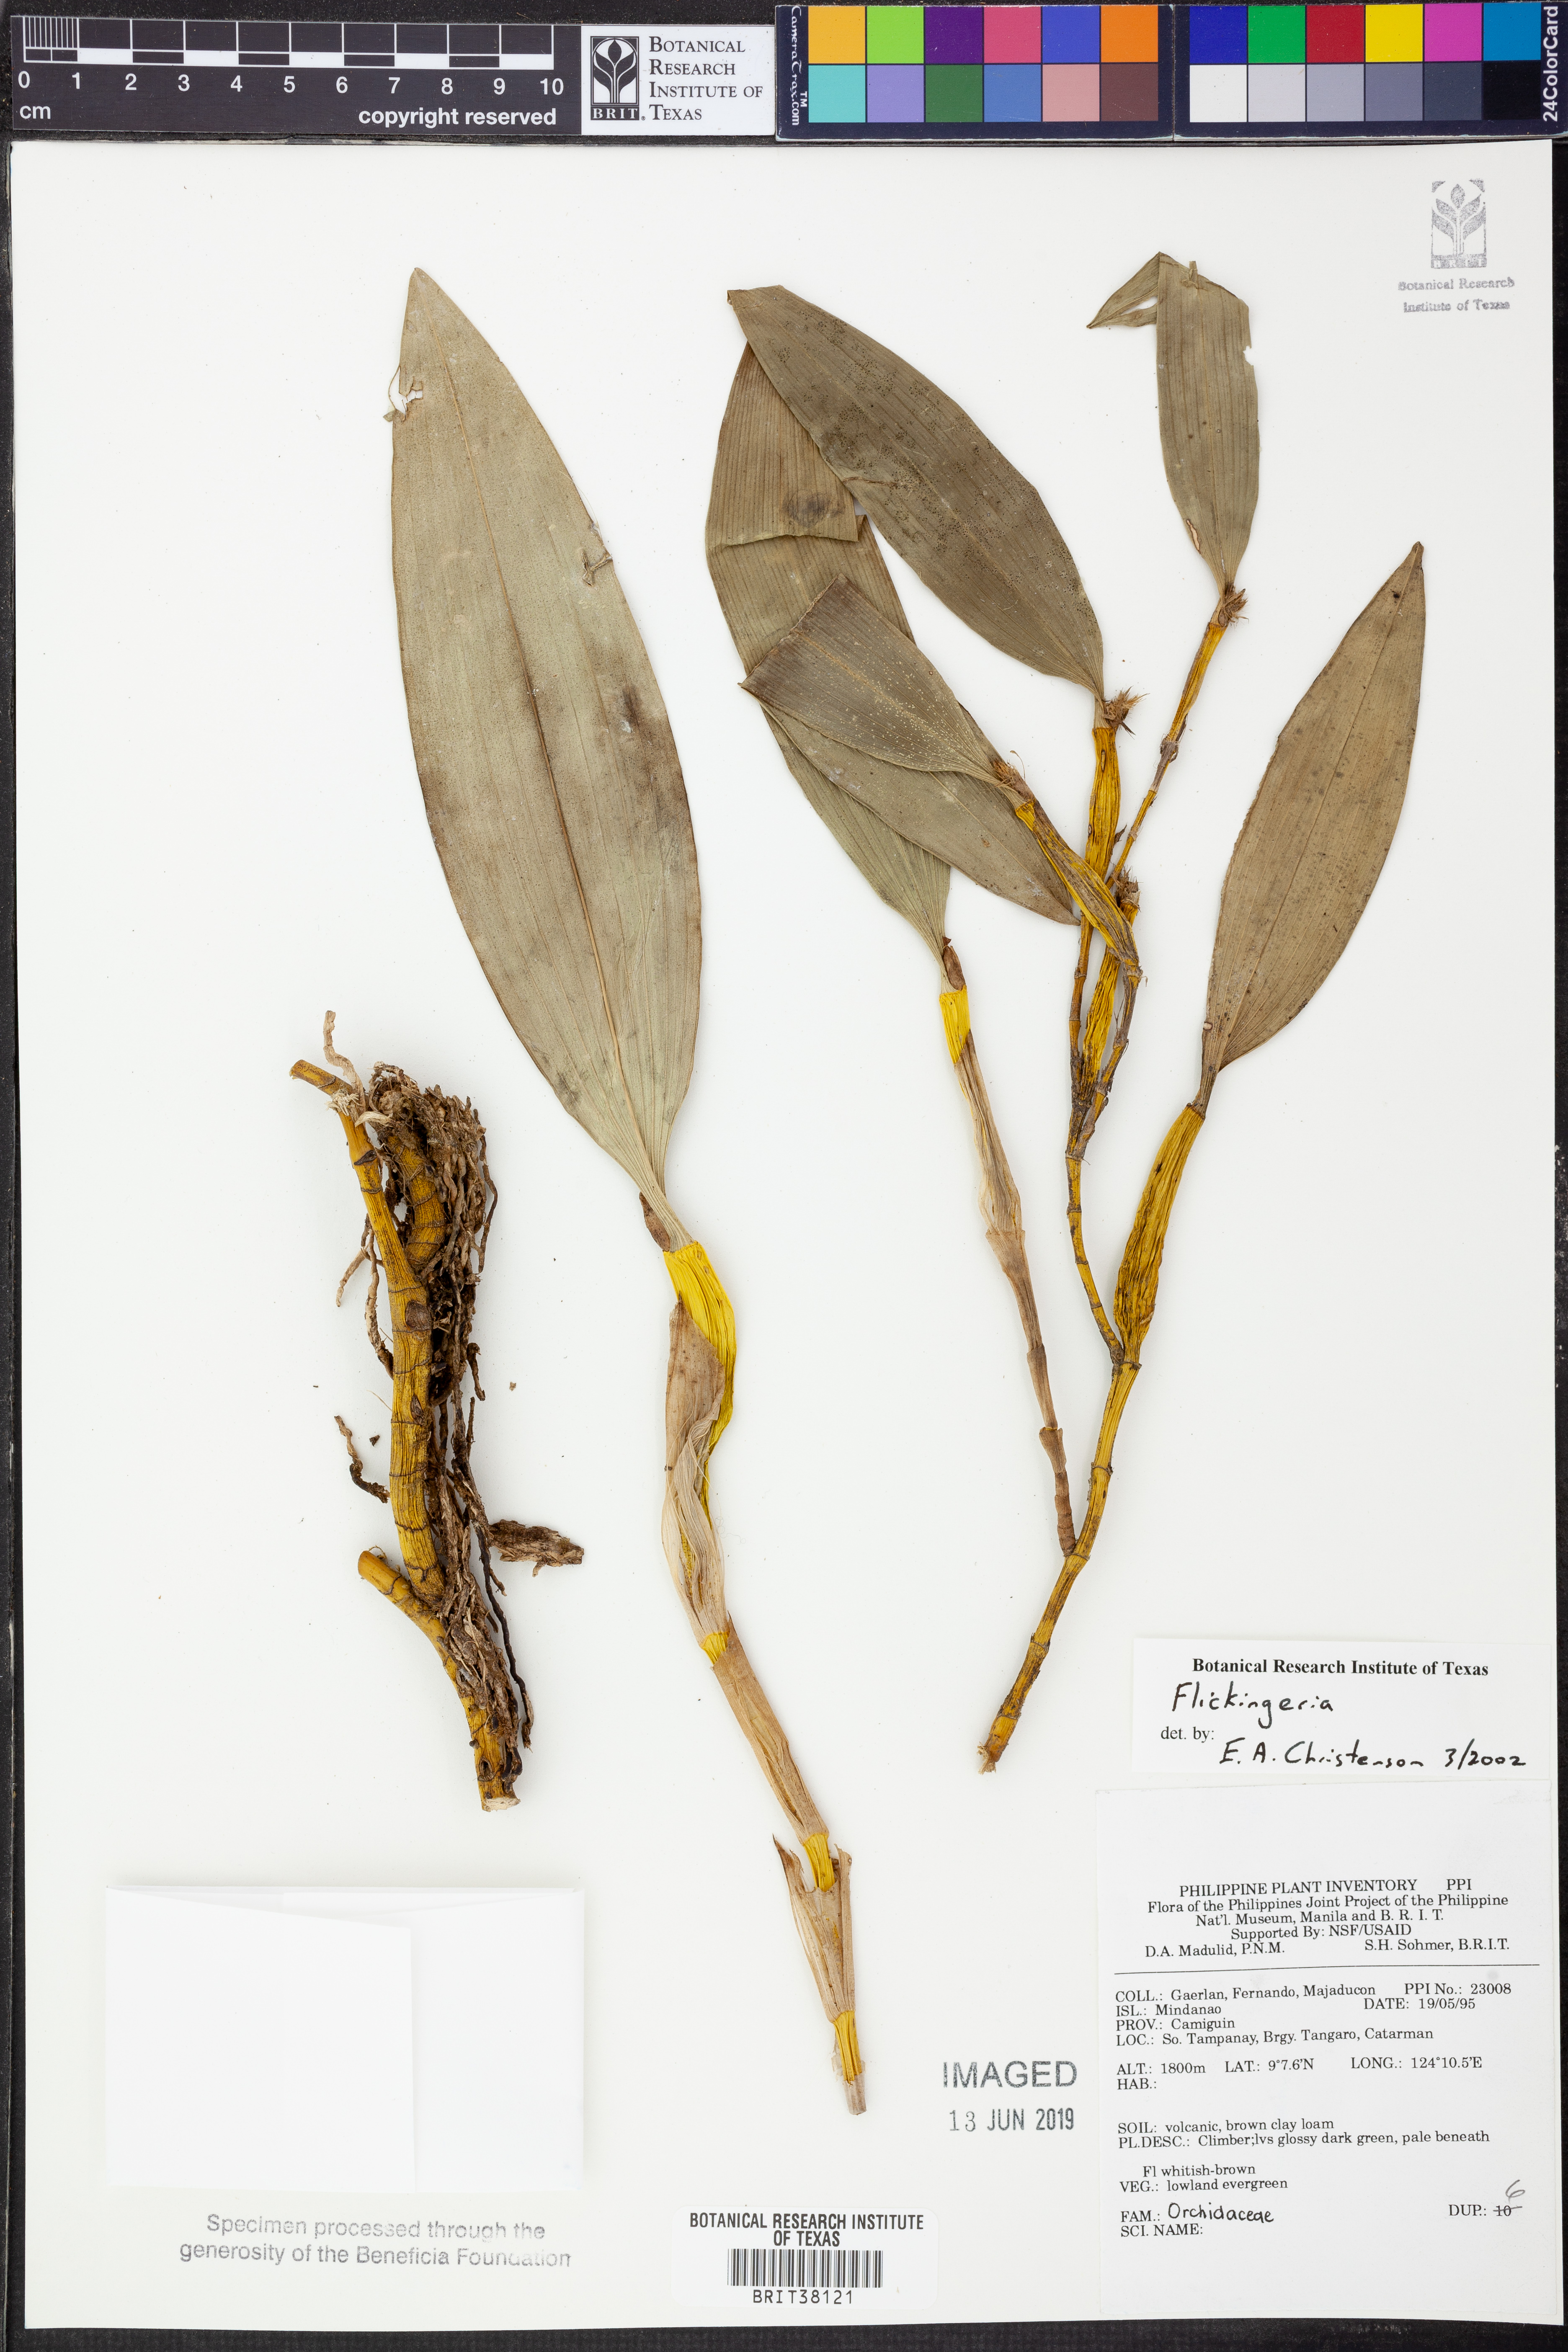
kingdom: Plantae
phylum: Tracheophyta
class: Liliopsida
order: Asparagales
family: Orchidaceae
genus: Dendrobium
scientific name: Dendrobium
